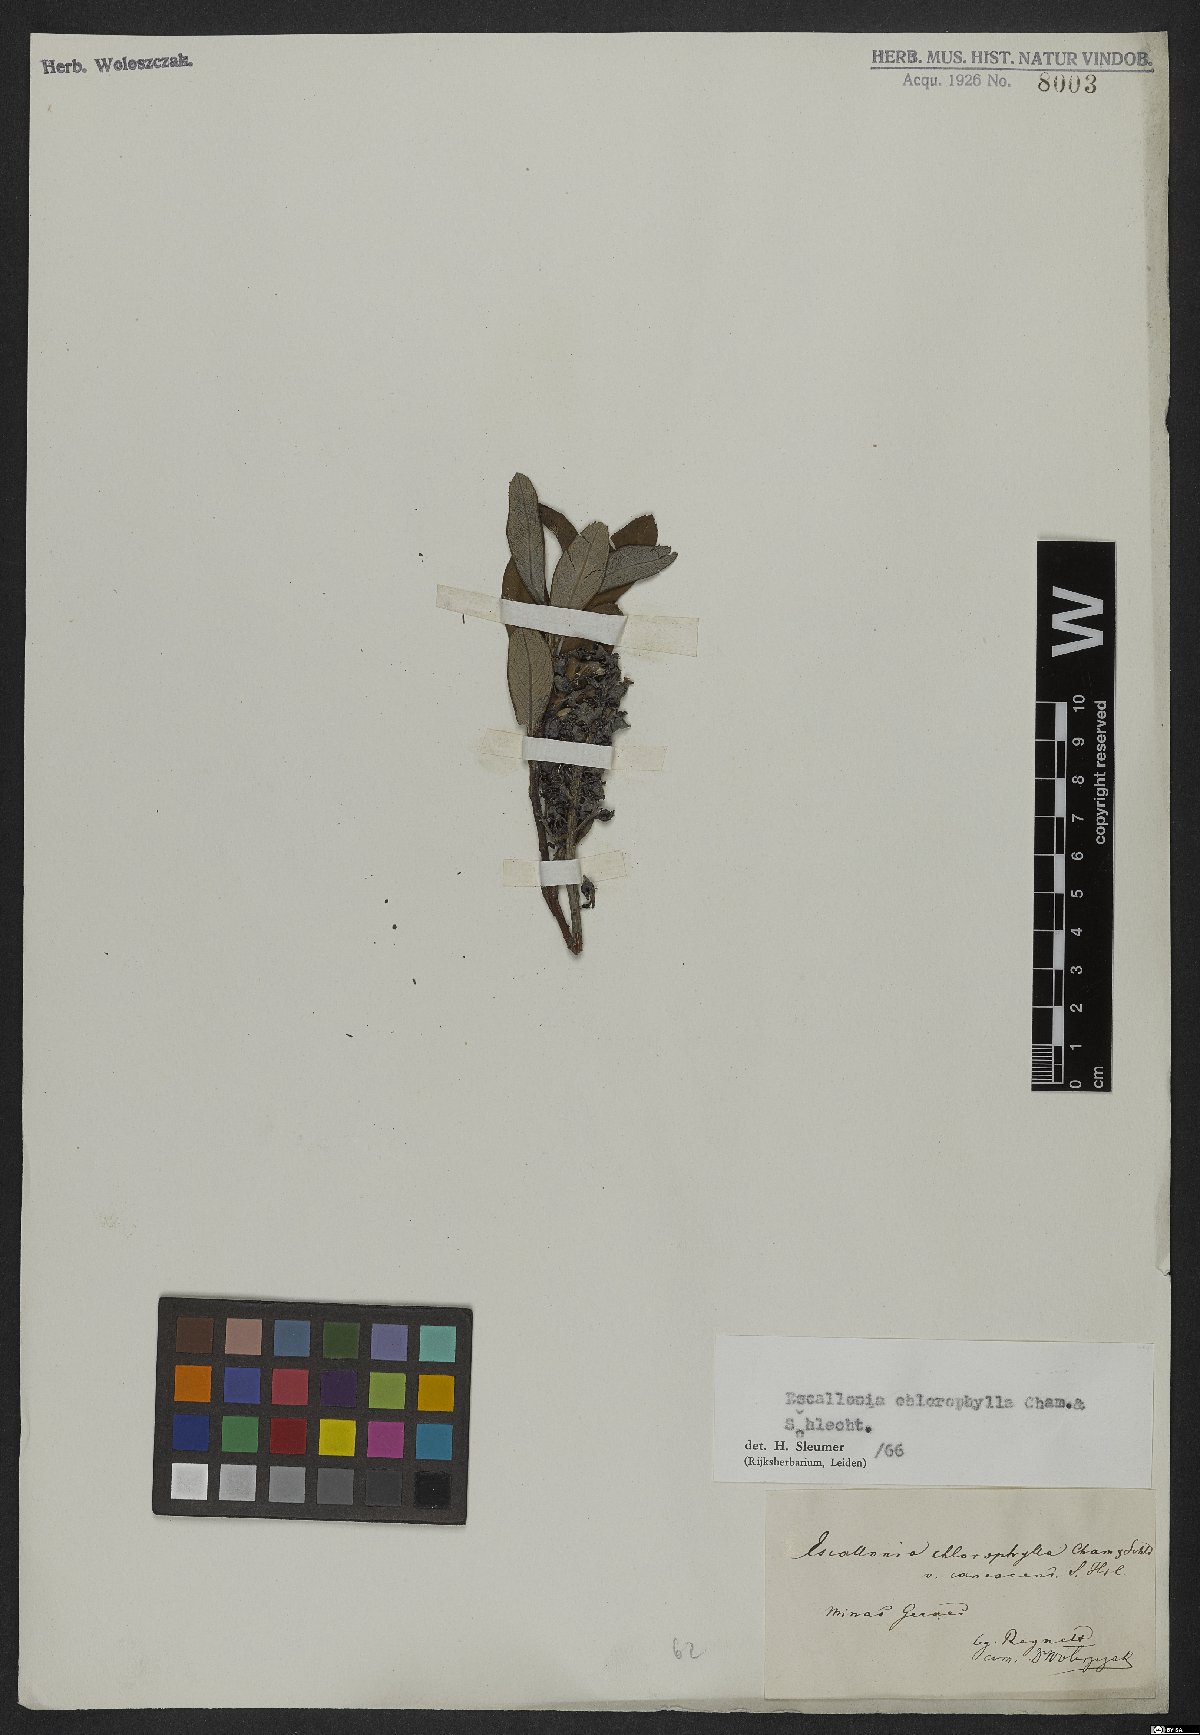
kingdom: Plantae
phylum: Tracheophyta
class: Magnoliopsida
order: Escalloniales
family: Escalloniaceae
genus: Escallonia
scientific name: Escallonia chlorophylla
